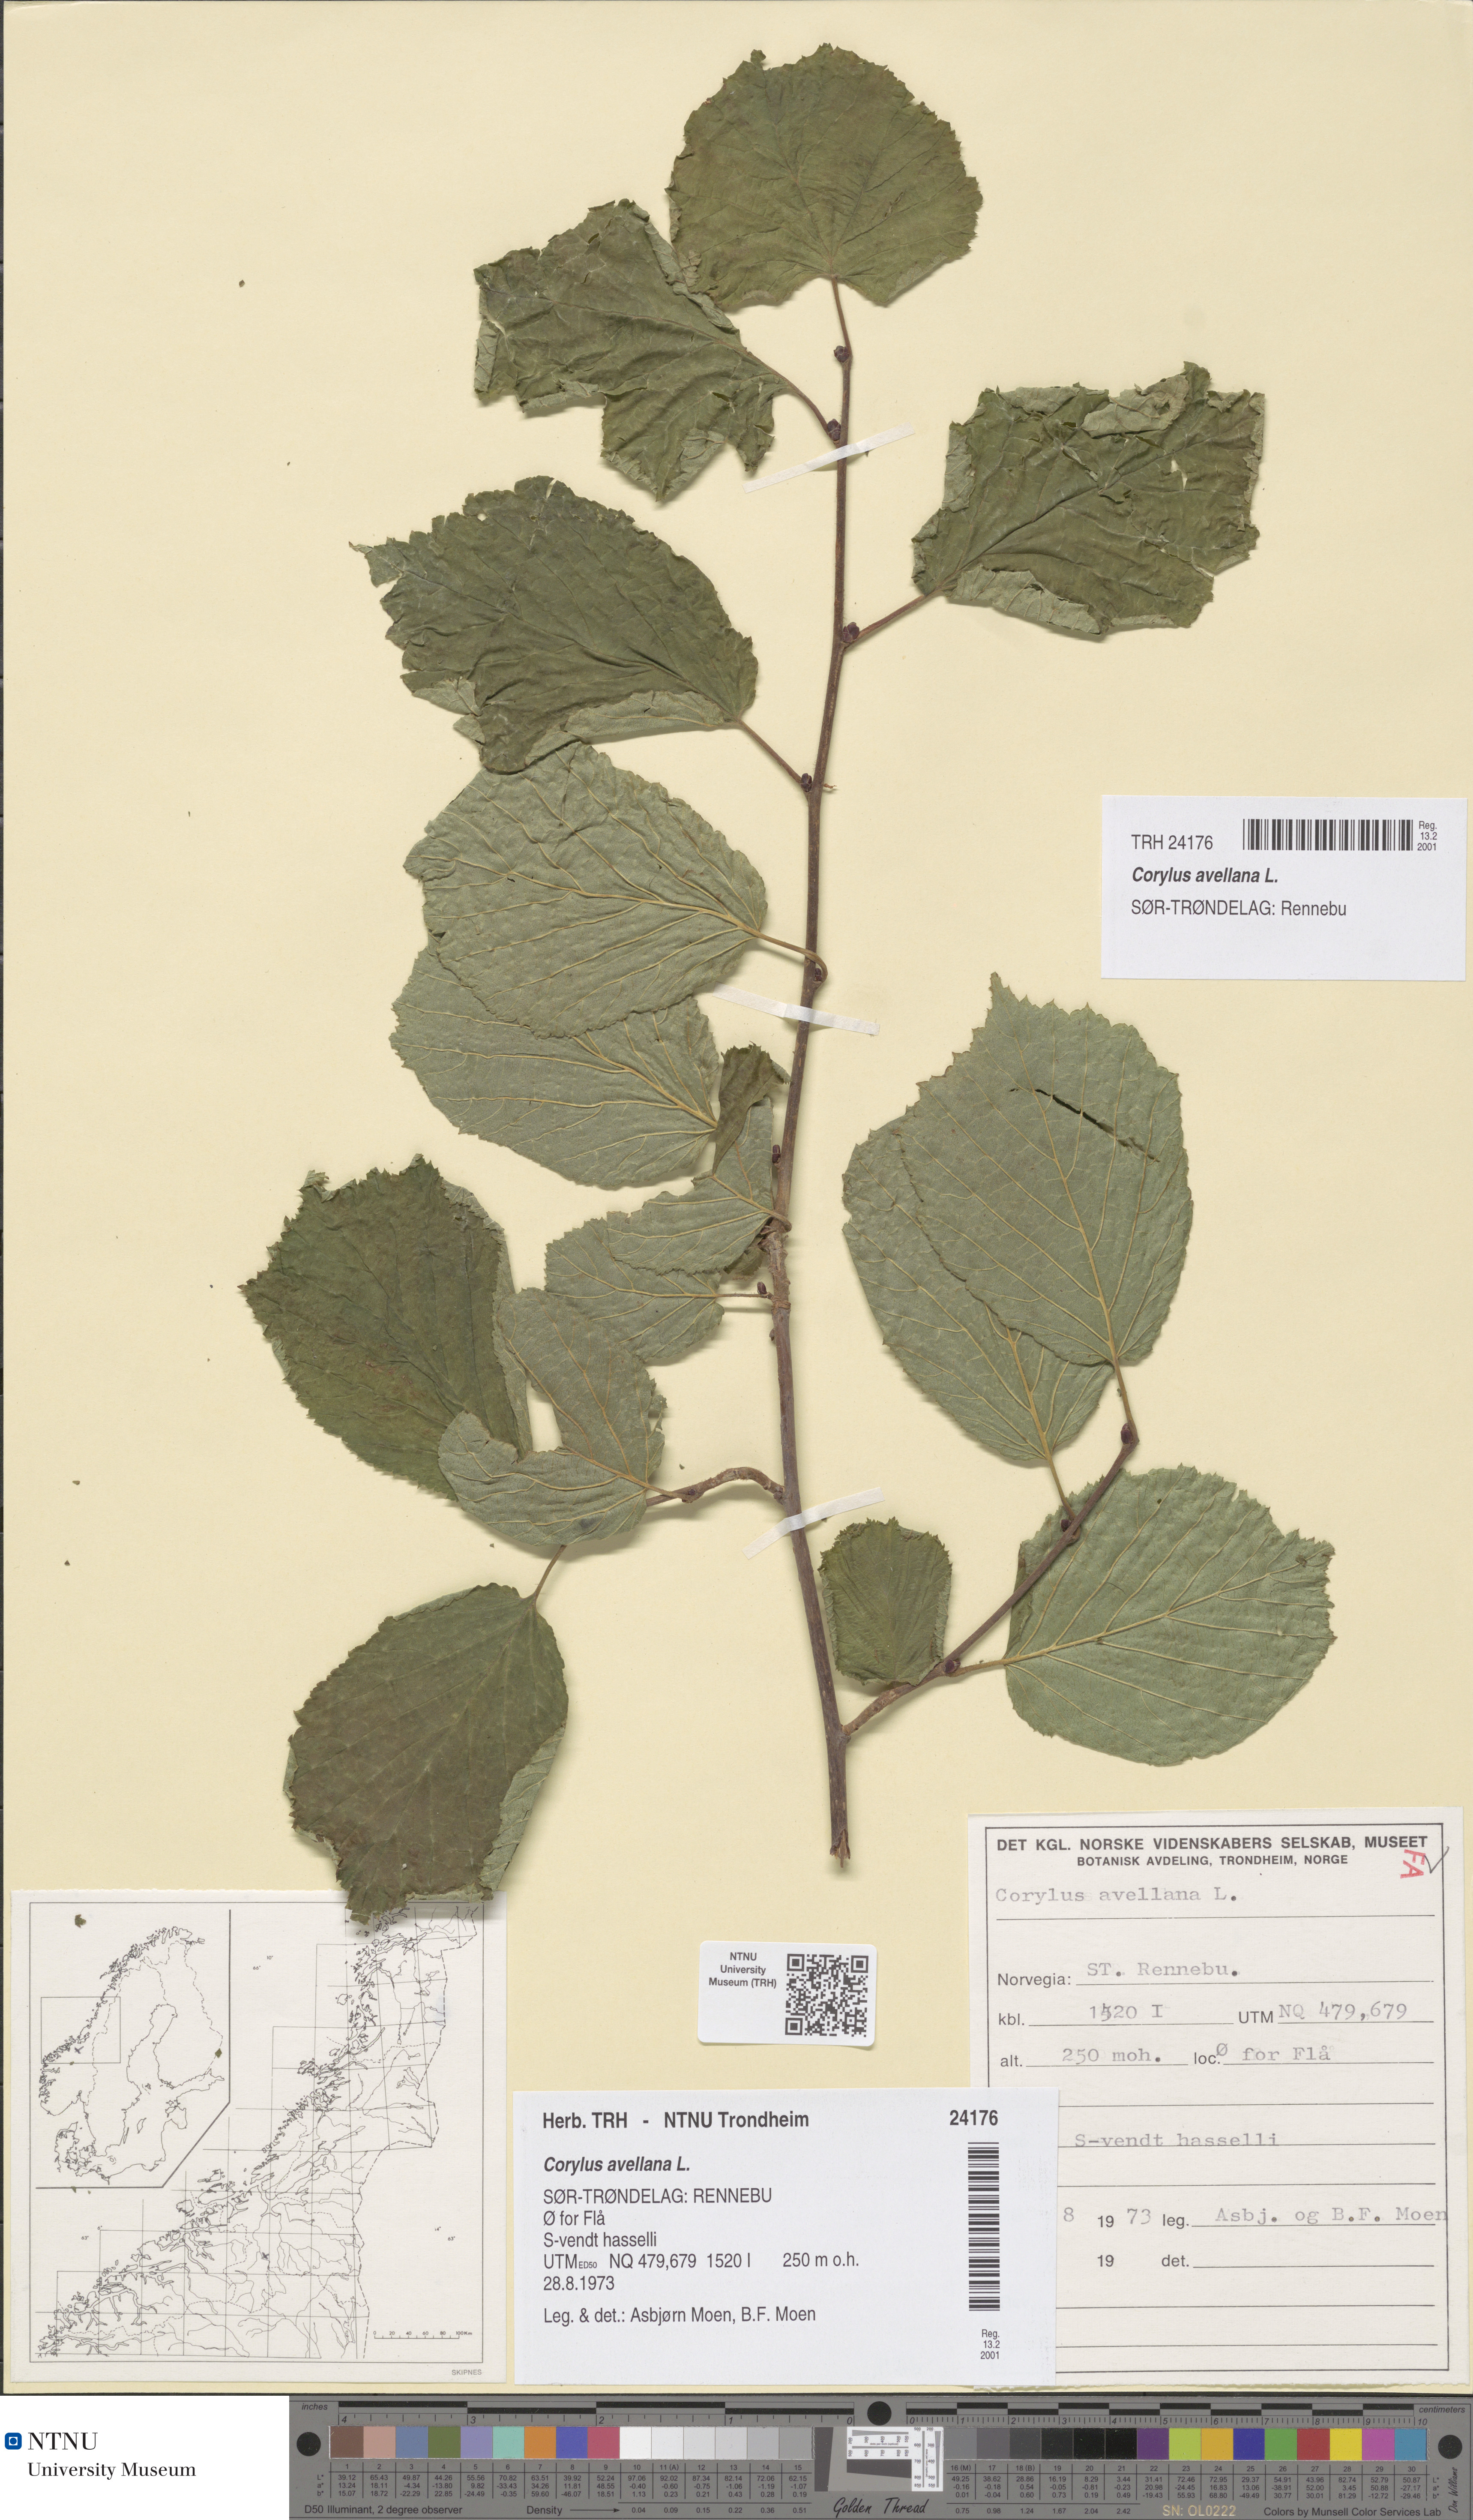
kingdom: Plantae
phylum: Tracheophyta
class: Magnoliopsida
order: Fagales
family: Betulaceae
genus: Corylus
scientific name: Corylus avellana
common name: European hazel
